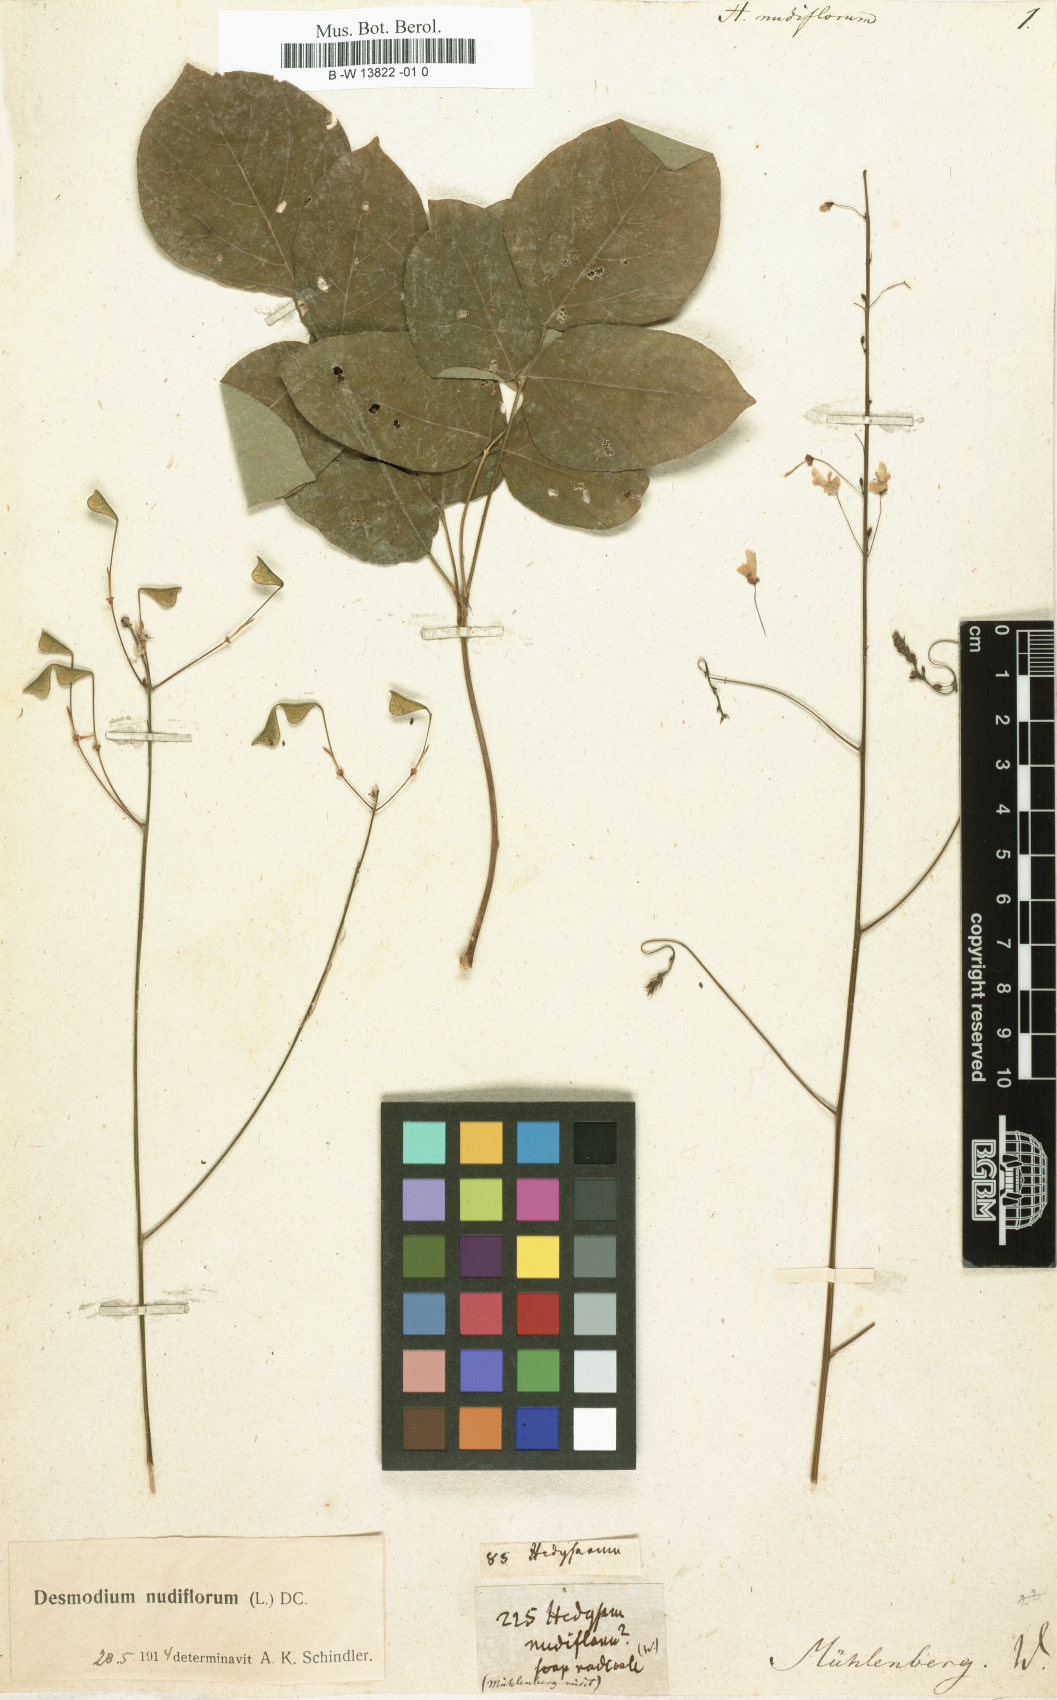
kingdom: Plantae
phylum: Tracheophyta
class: Magnoliopsida
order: Fabales
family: Fabaceae
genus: Hylodesmum
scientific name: Hylodesmum nudiflorum
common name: Bare-stemmed tick-trefoil
